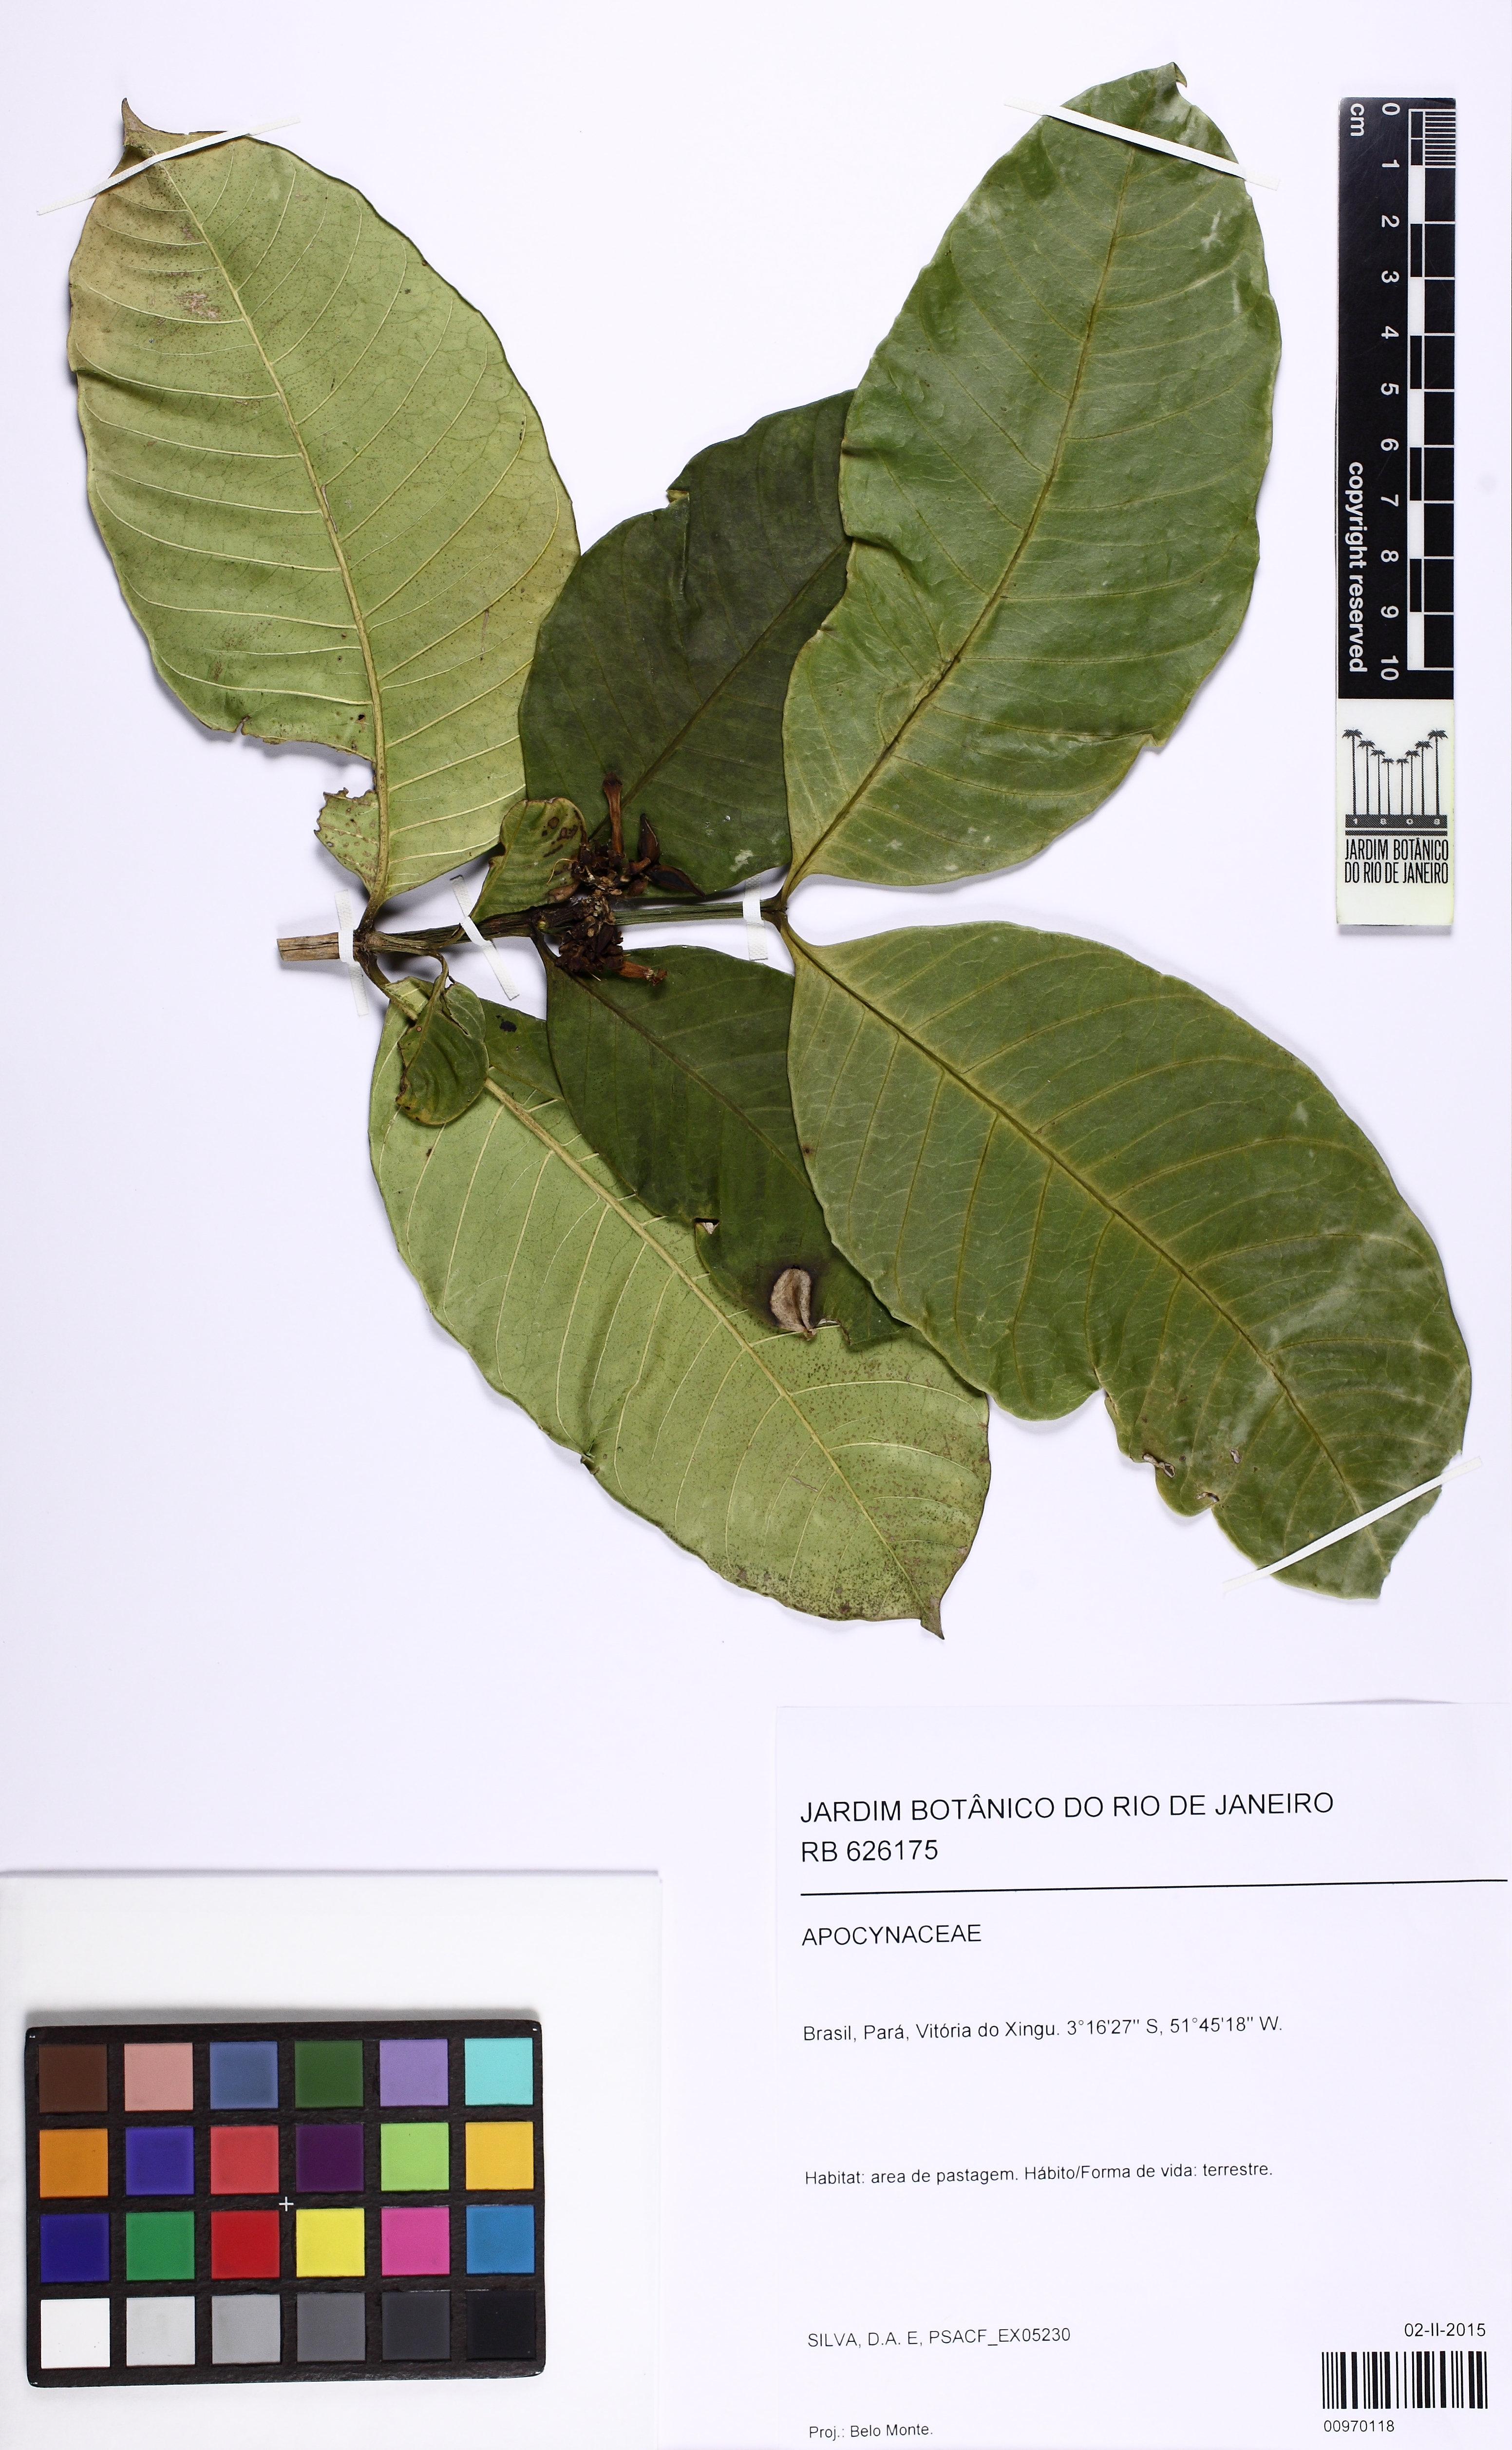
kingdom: Plantae
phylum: Tracheophyta
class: Magnoliopsida
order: Gentianales
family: Apocynaceae
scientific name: Apocynaceae
